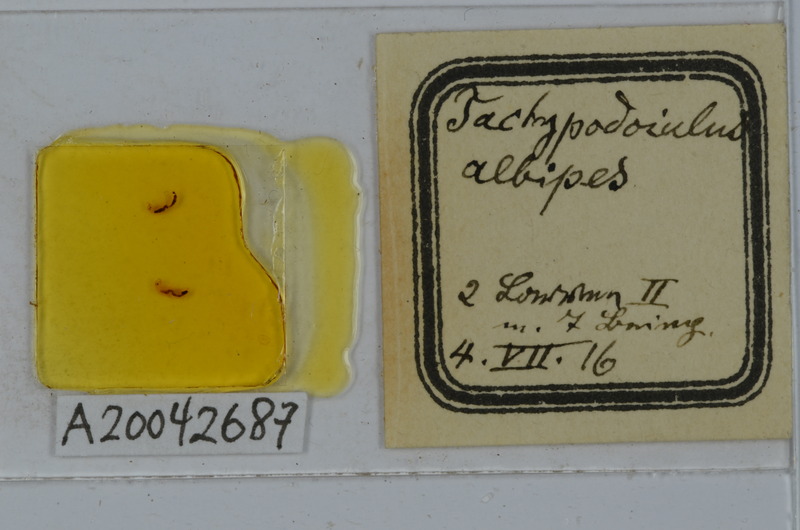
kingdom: Animalia
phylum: Arthropoda
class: Diplopoda
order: Julida
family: Julidae
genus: Tachypodoiulus
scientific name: Tachypodoiulus niger
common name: White-legged snake millipede
